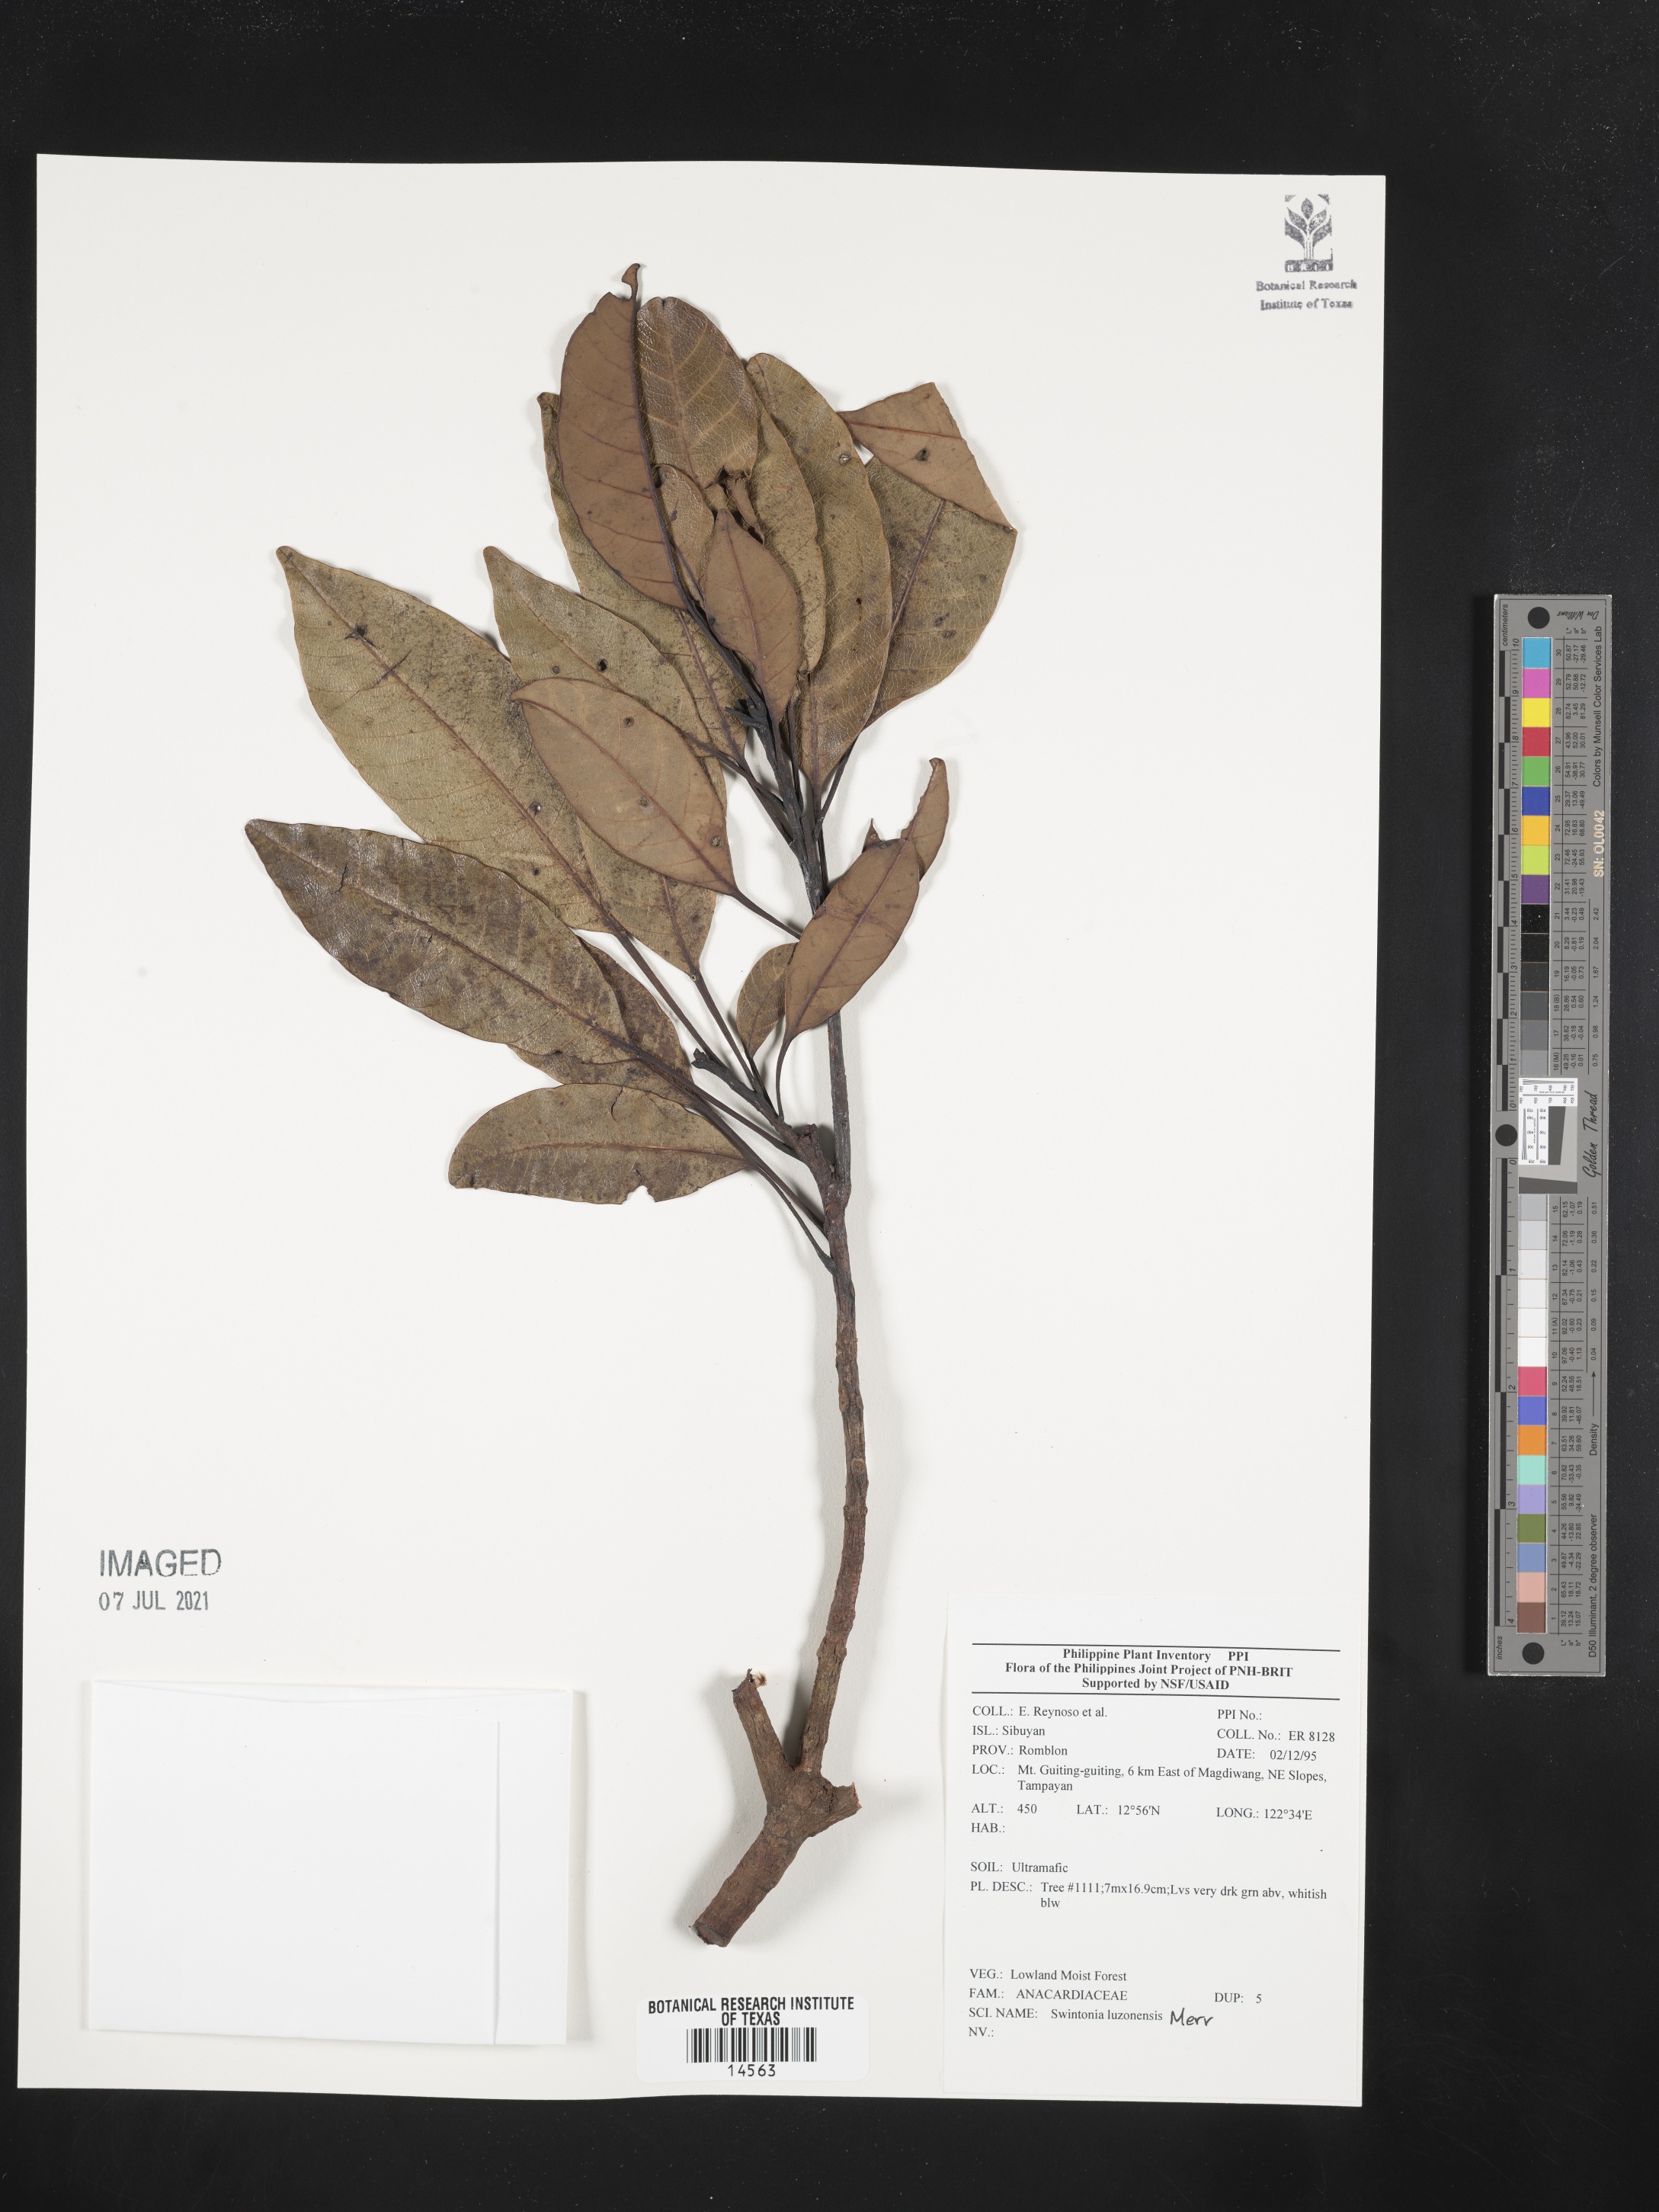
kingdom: Plantae
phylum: Tracheophyta
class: Magnoliopsida
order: Sapindales
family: Anacardiaceae
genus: Swintonia
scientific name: Swintonia acuta
